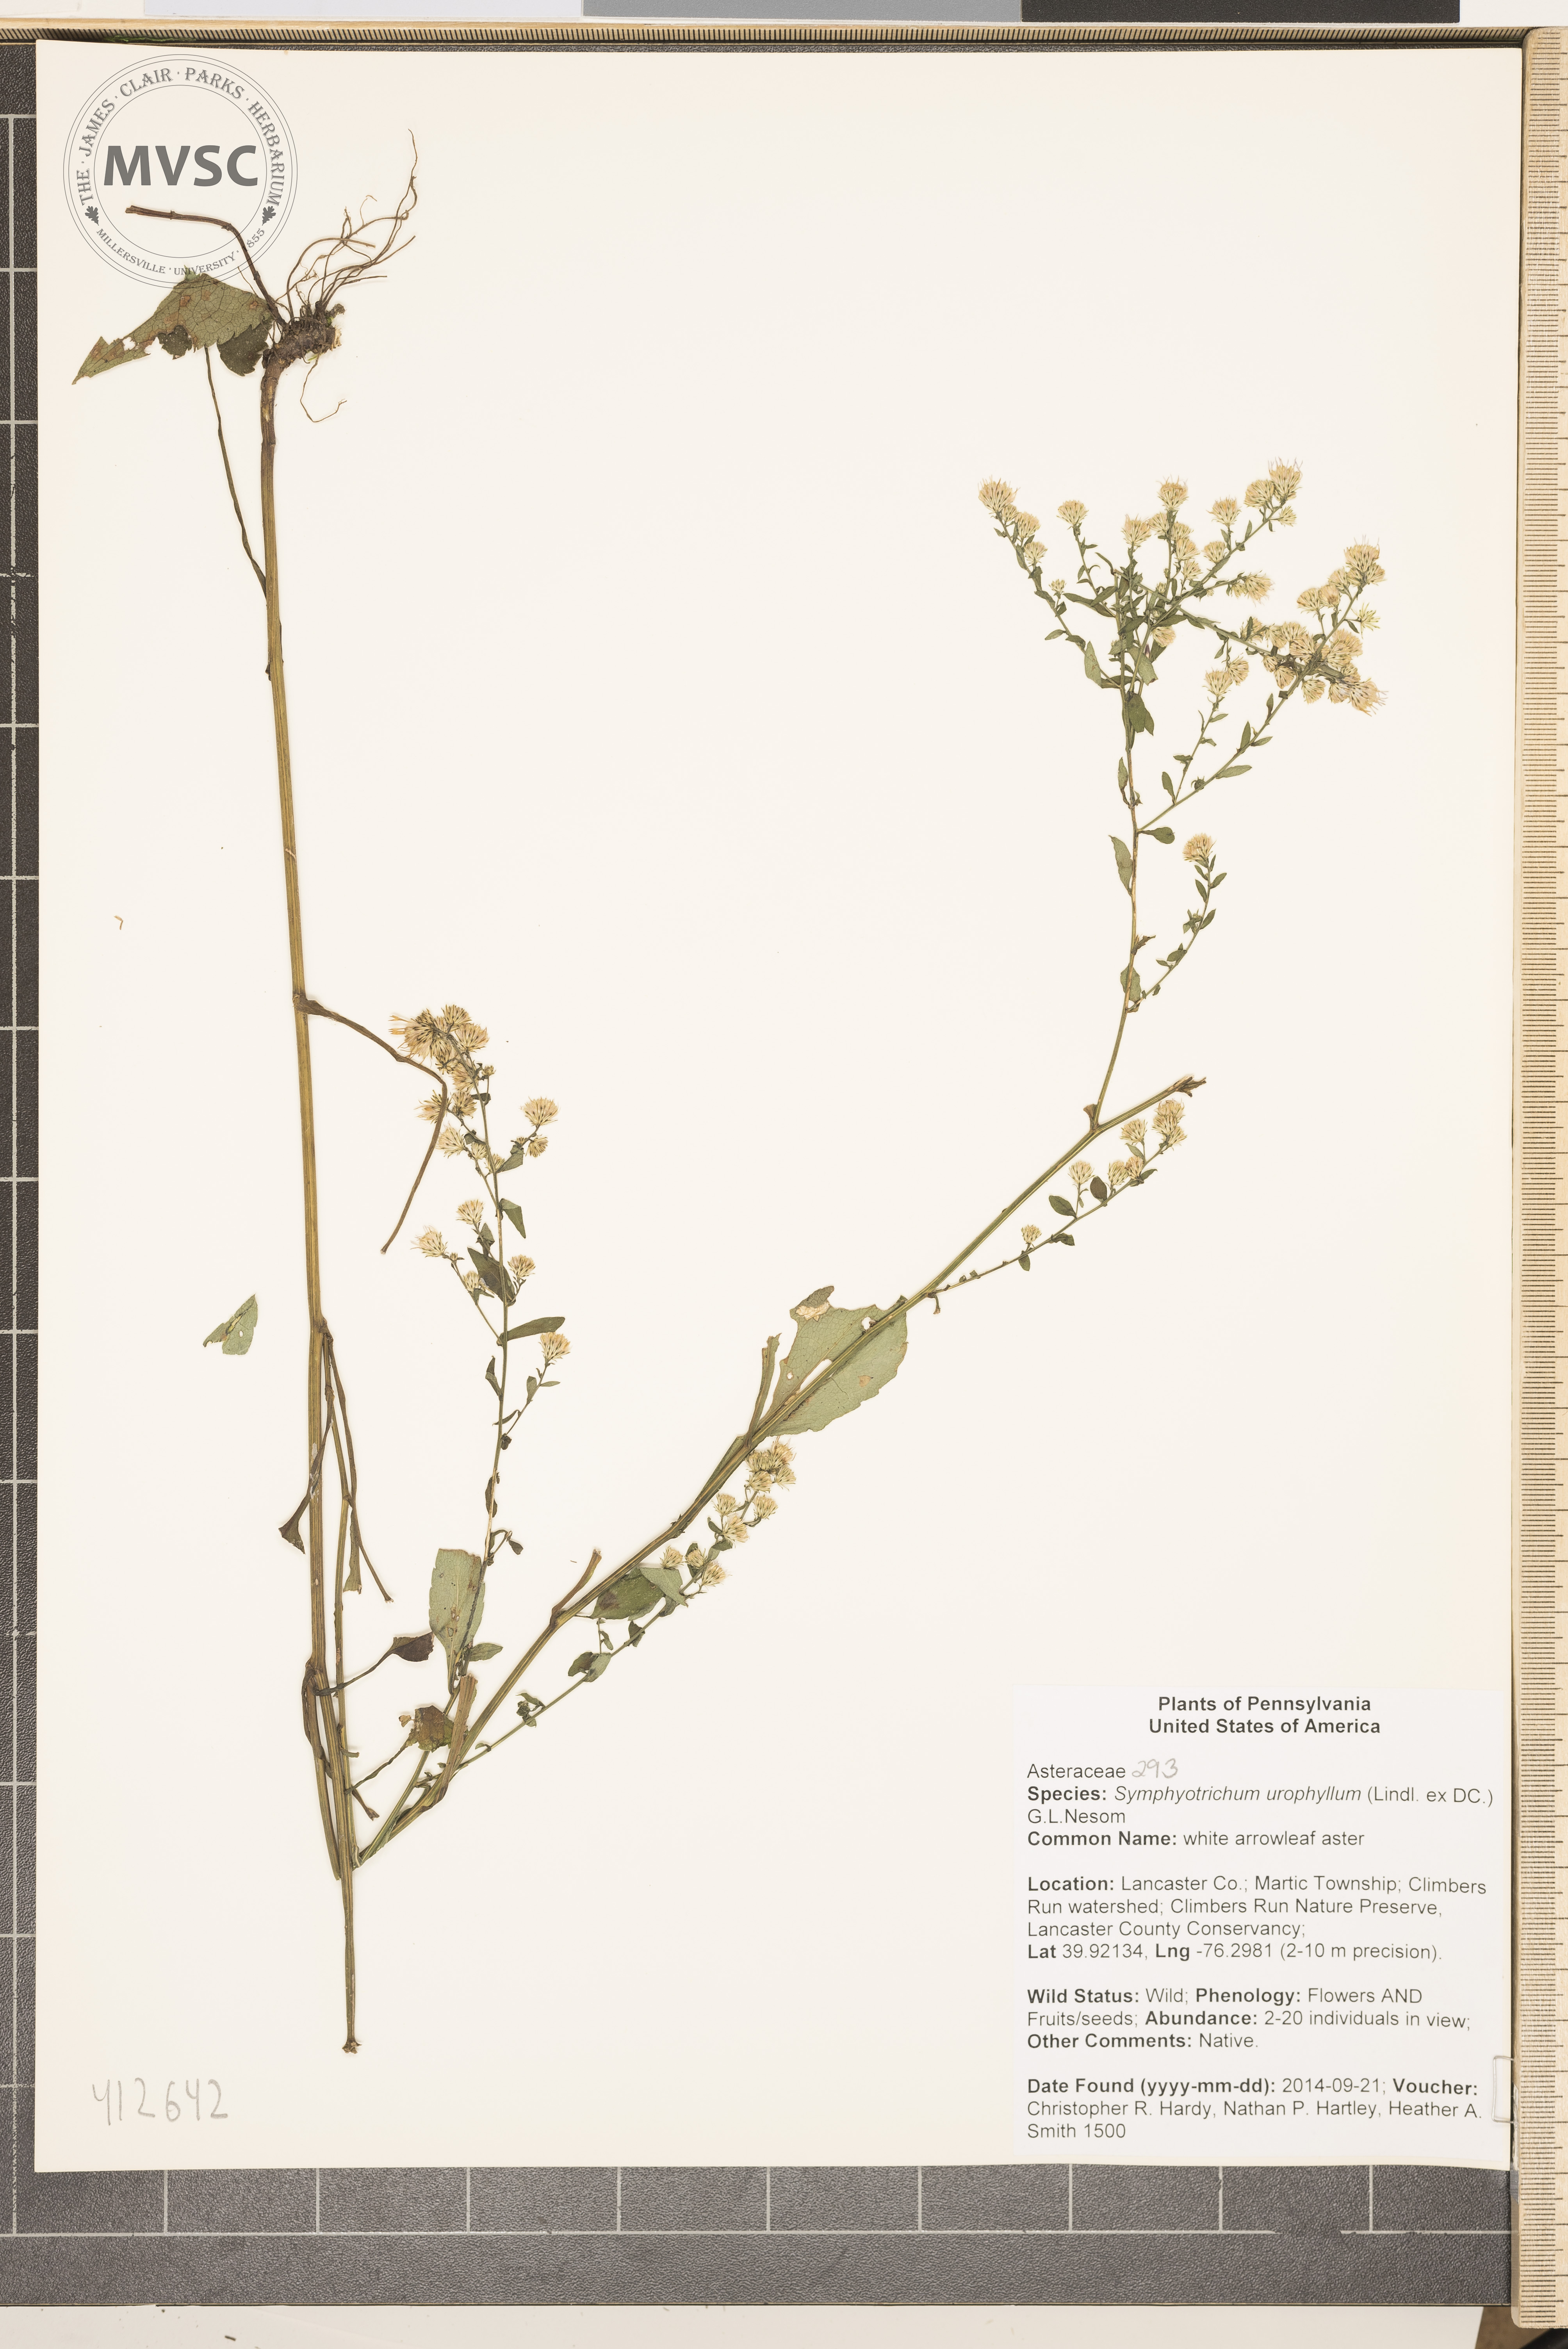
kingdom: Plantae
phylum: Tracheophyta
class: Magnoliopsida
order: Asterales
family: Asteraceae
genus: Symphyotrichum
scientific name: Symphyotrichum urophyllum
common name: white arrowleaf aster
